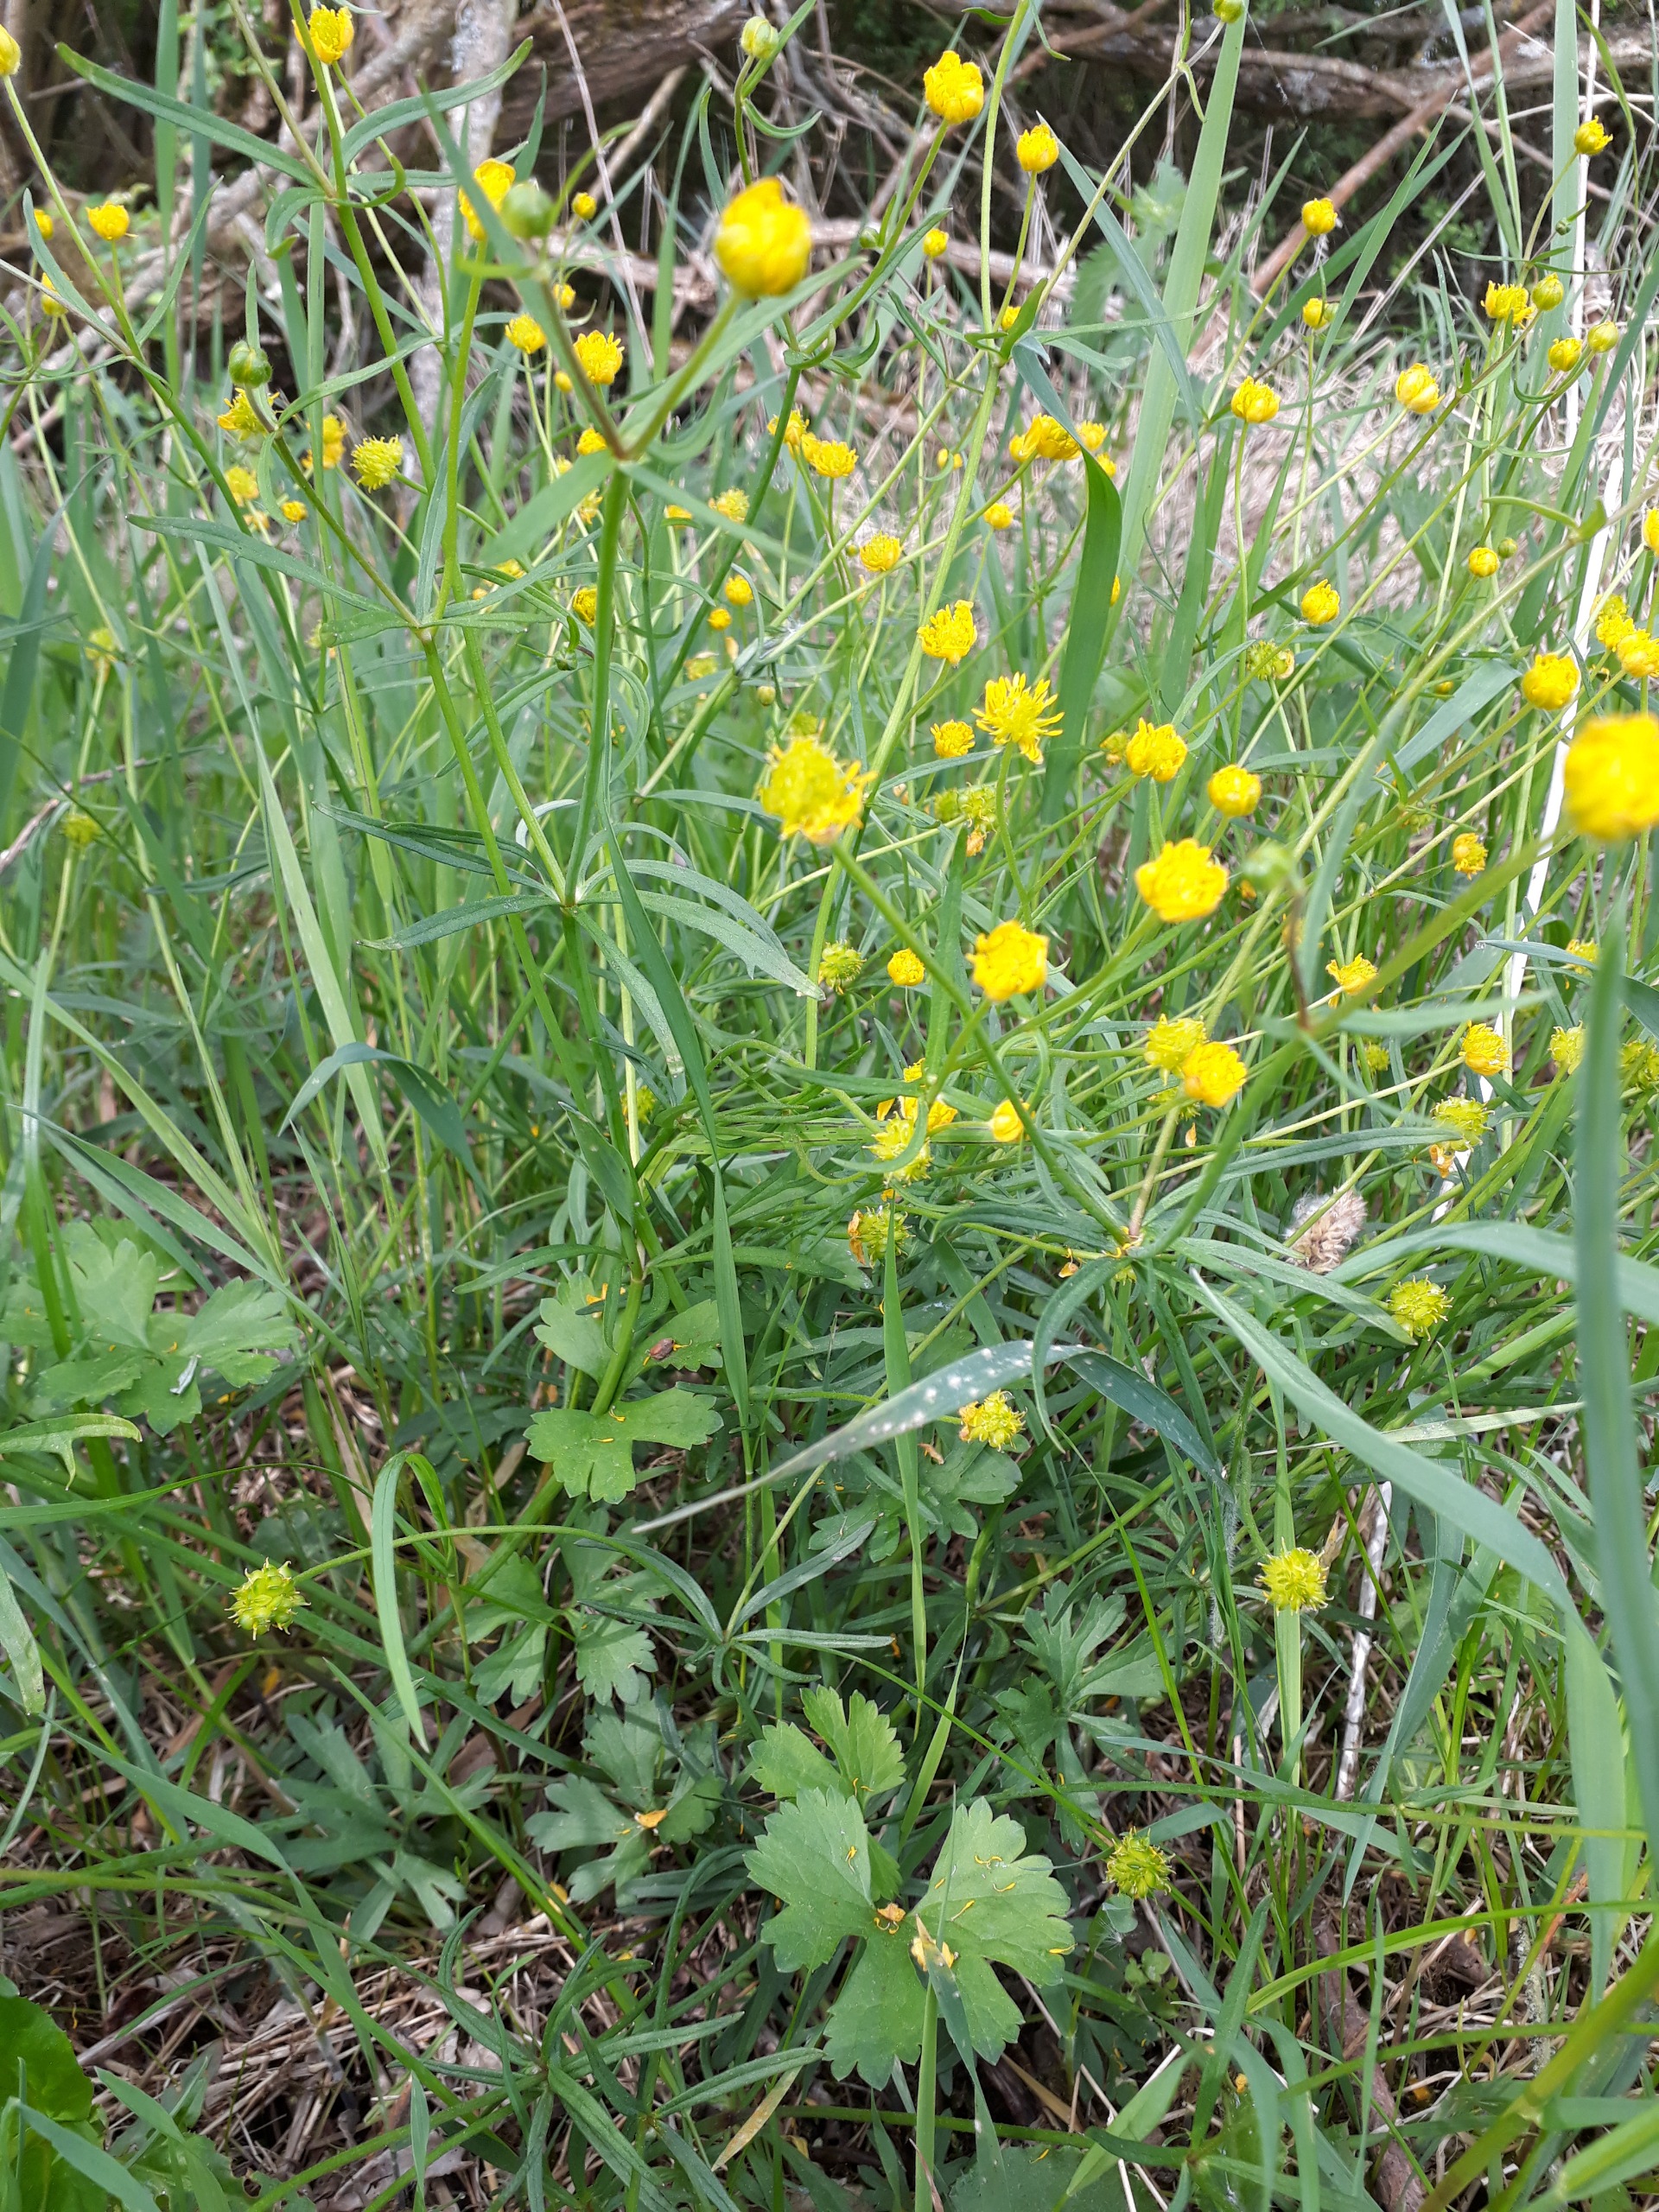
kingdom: Plantae
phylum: Tracheophyta
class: Magnoliopsida
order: Ranunculales
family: Ranunculaceae
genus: Ranunculus
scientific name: Ranunculus auricomus
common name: Nyrebladet ranunkel
